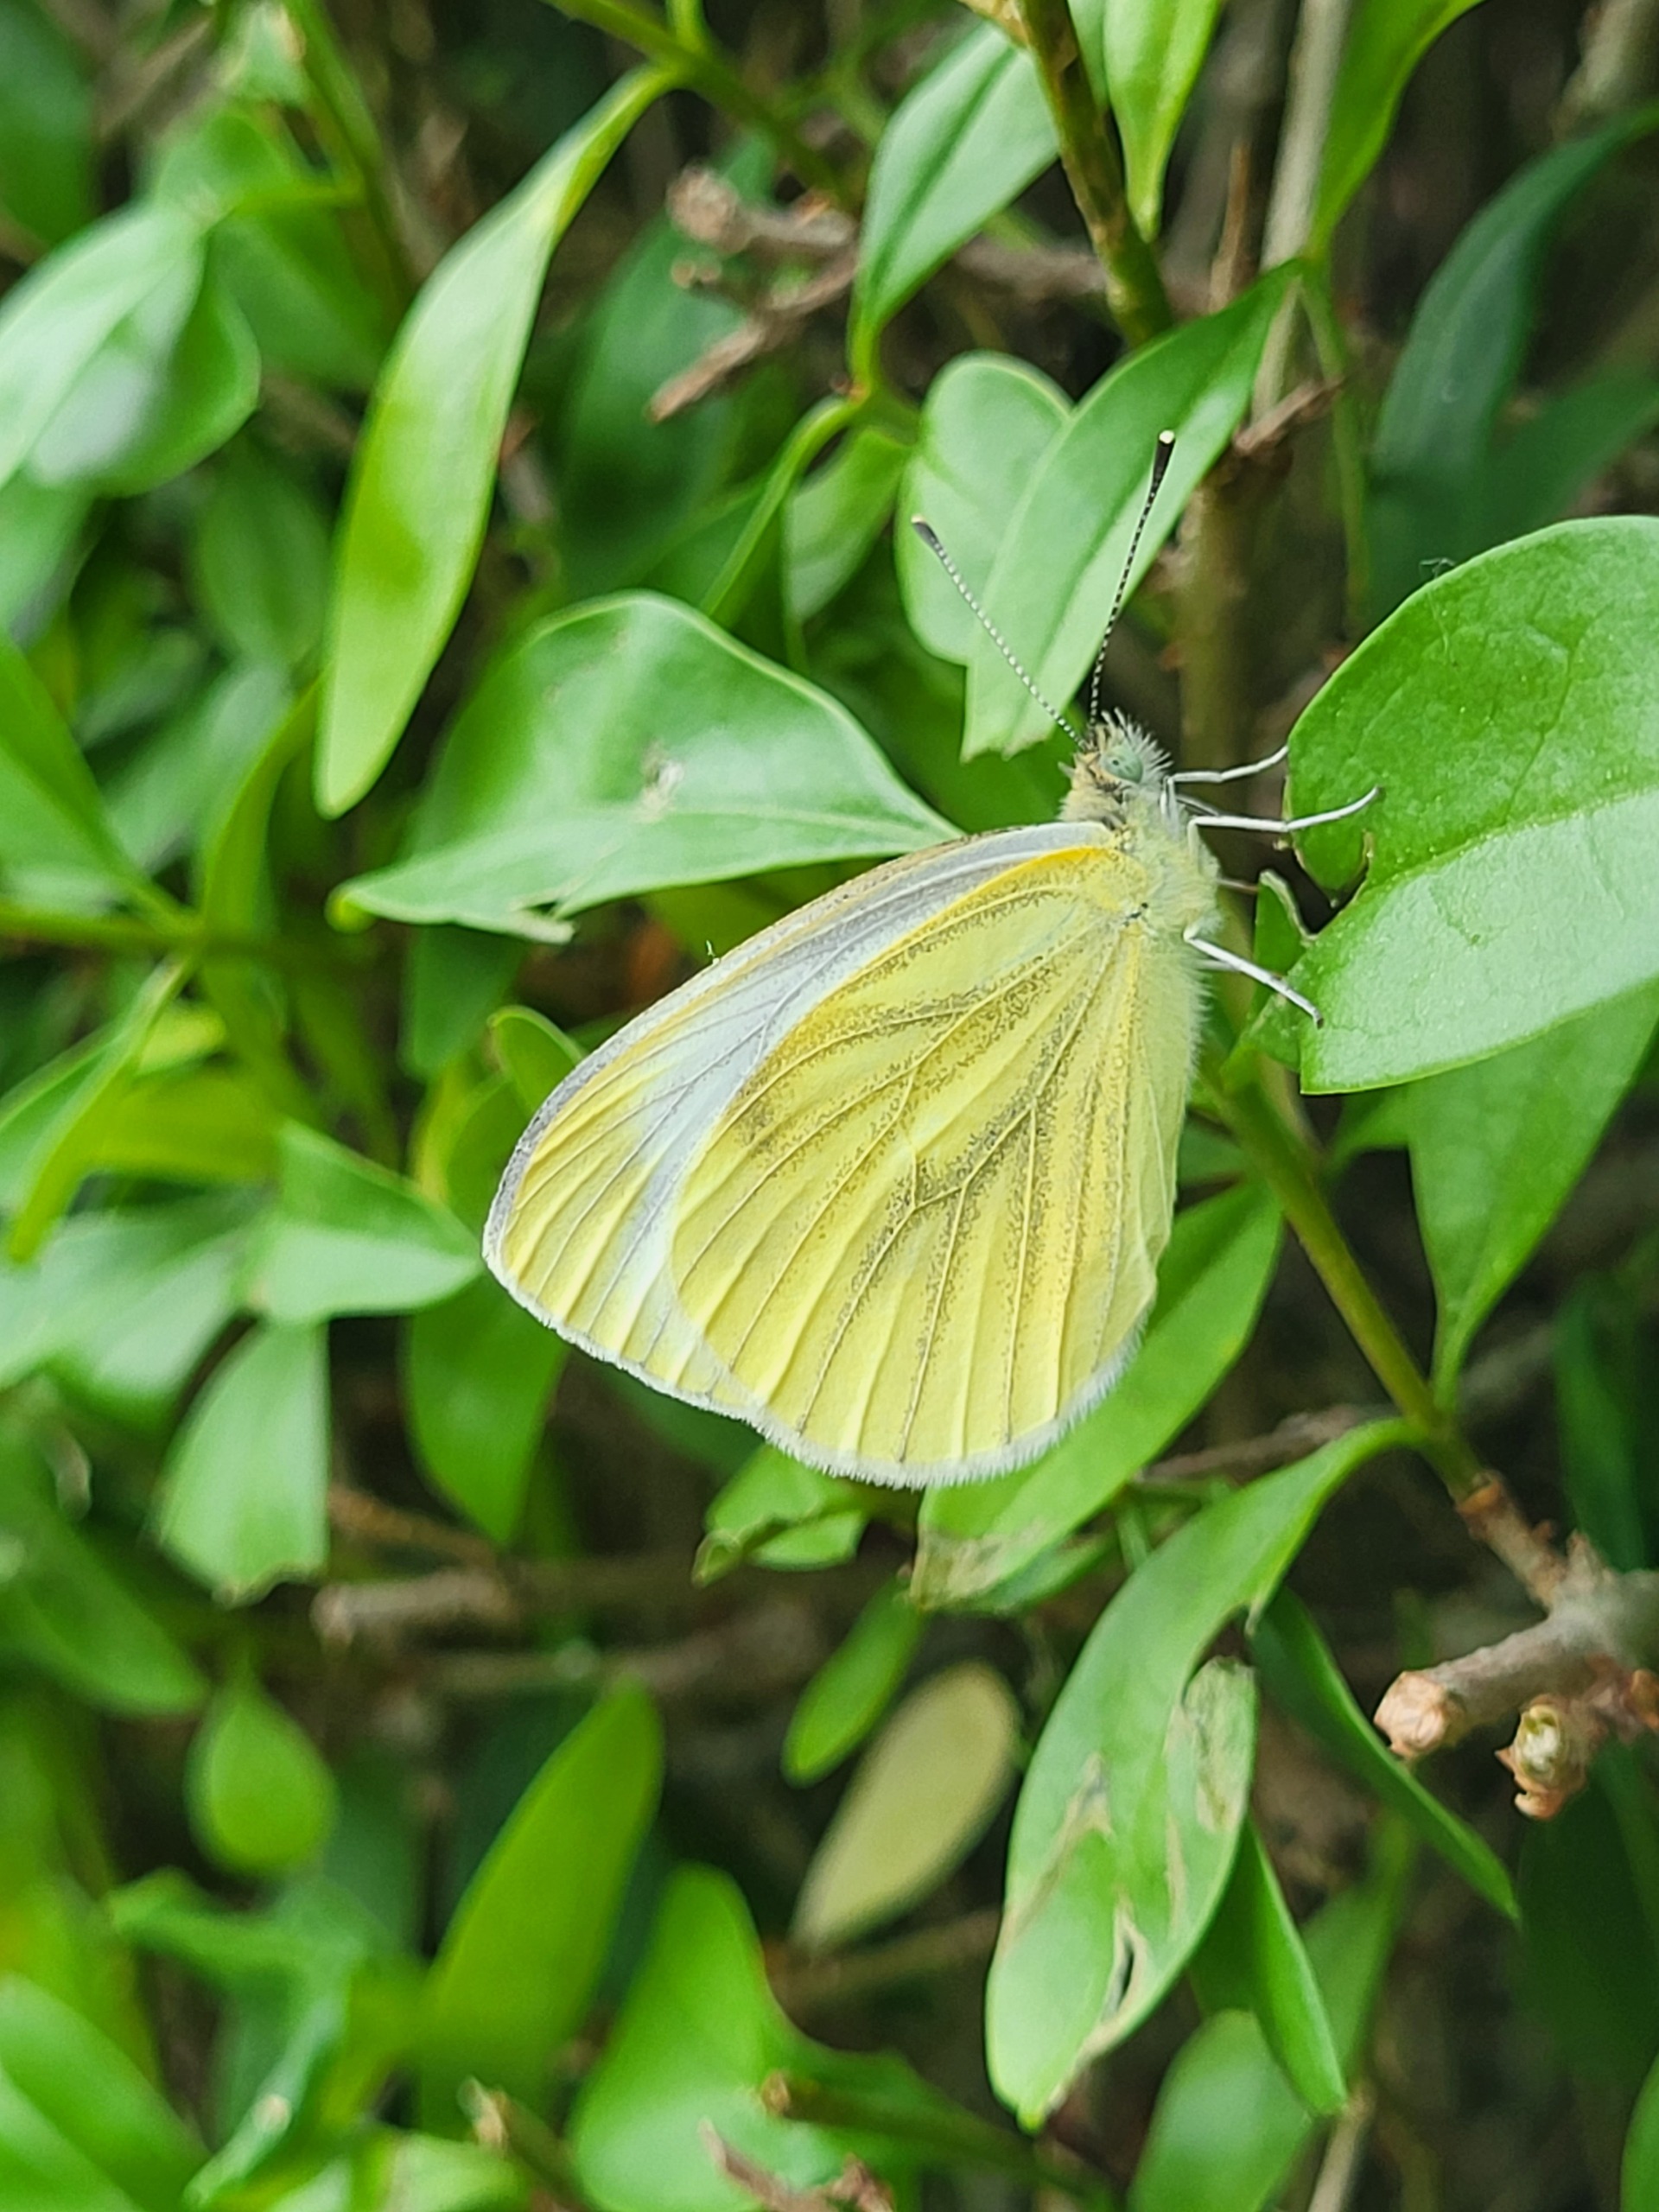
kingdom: Animalia
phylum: Arthropoda
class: Insecta
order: Lepidoptera
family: Pieridae
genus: Pieris
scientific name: Pieris napi
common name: Grønåret kålsommerfugl
